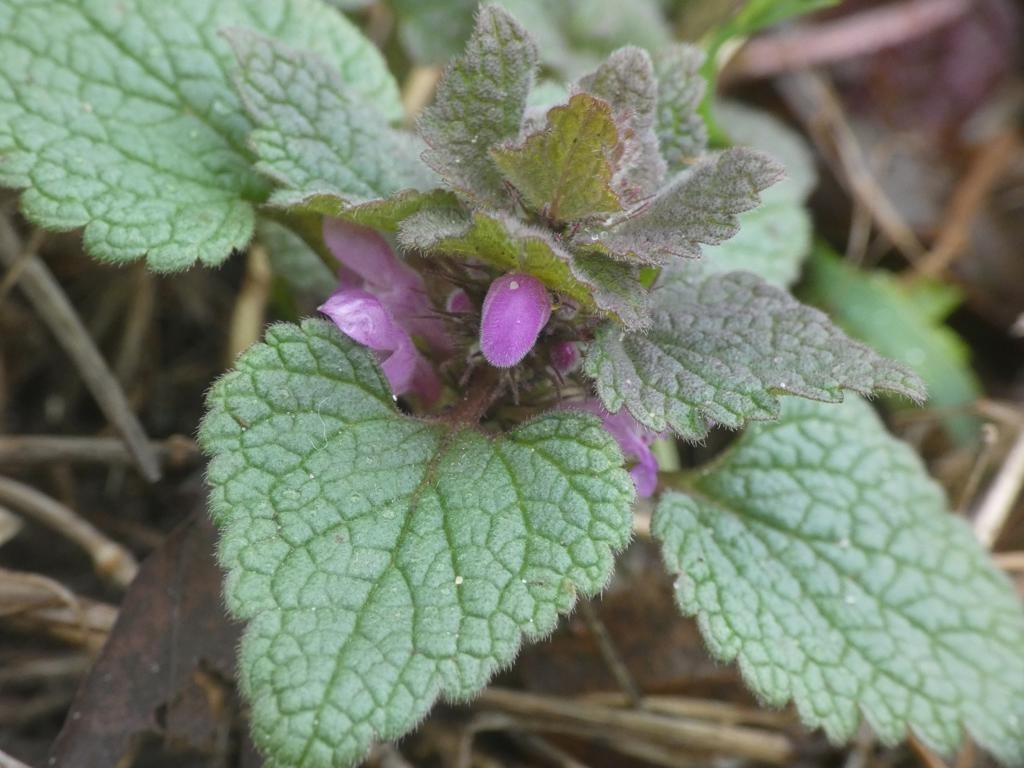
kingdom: Plantae
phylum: Tracheophyta
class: Magnoliopsida
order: Lamiales
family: Lamiaceae
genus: Lamium
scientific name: Lamium purpureum
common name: Rød tvetand
